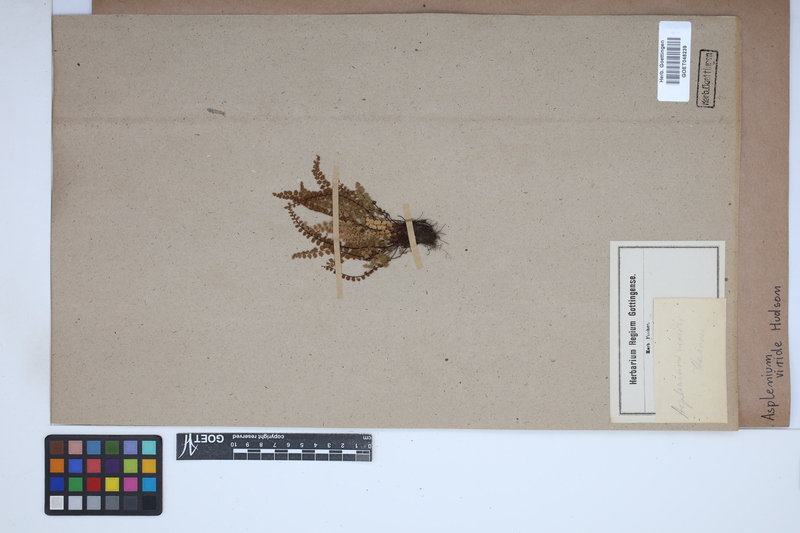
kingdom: Plantae
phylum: Tracheophyta
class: Polypodiopsida
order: Polypodiales
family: Aspleniaceae
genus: Asplenium
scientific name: Asplenium viride
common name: Green spleenwort
